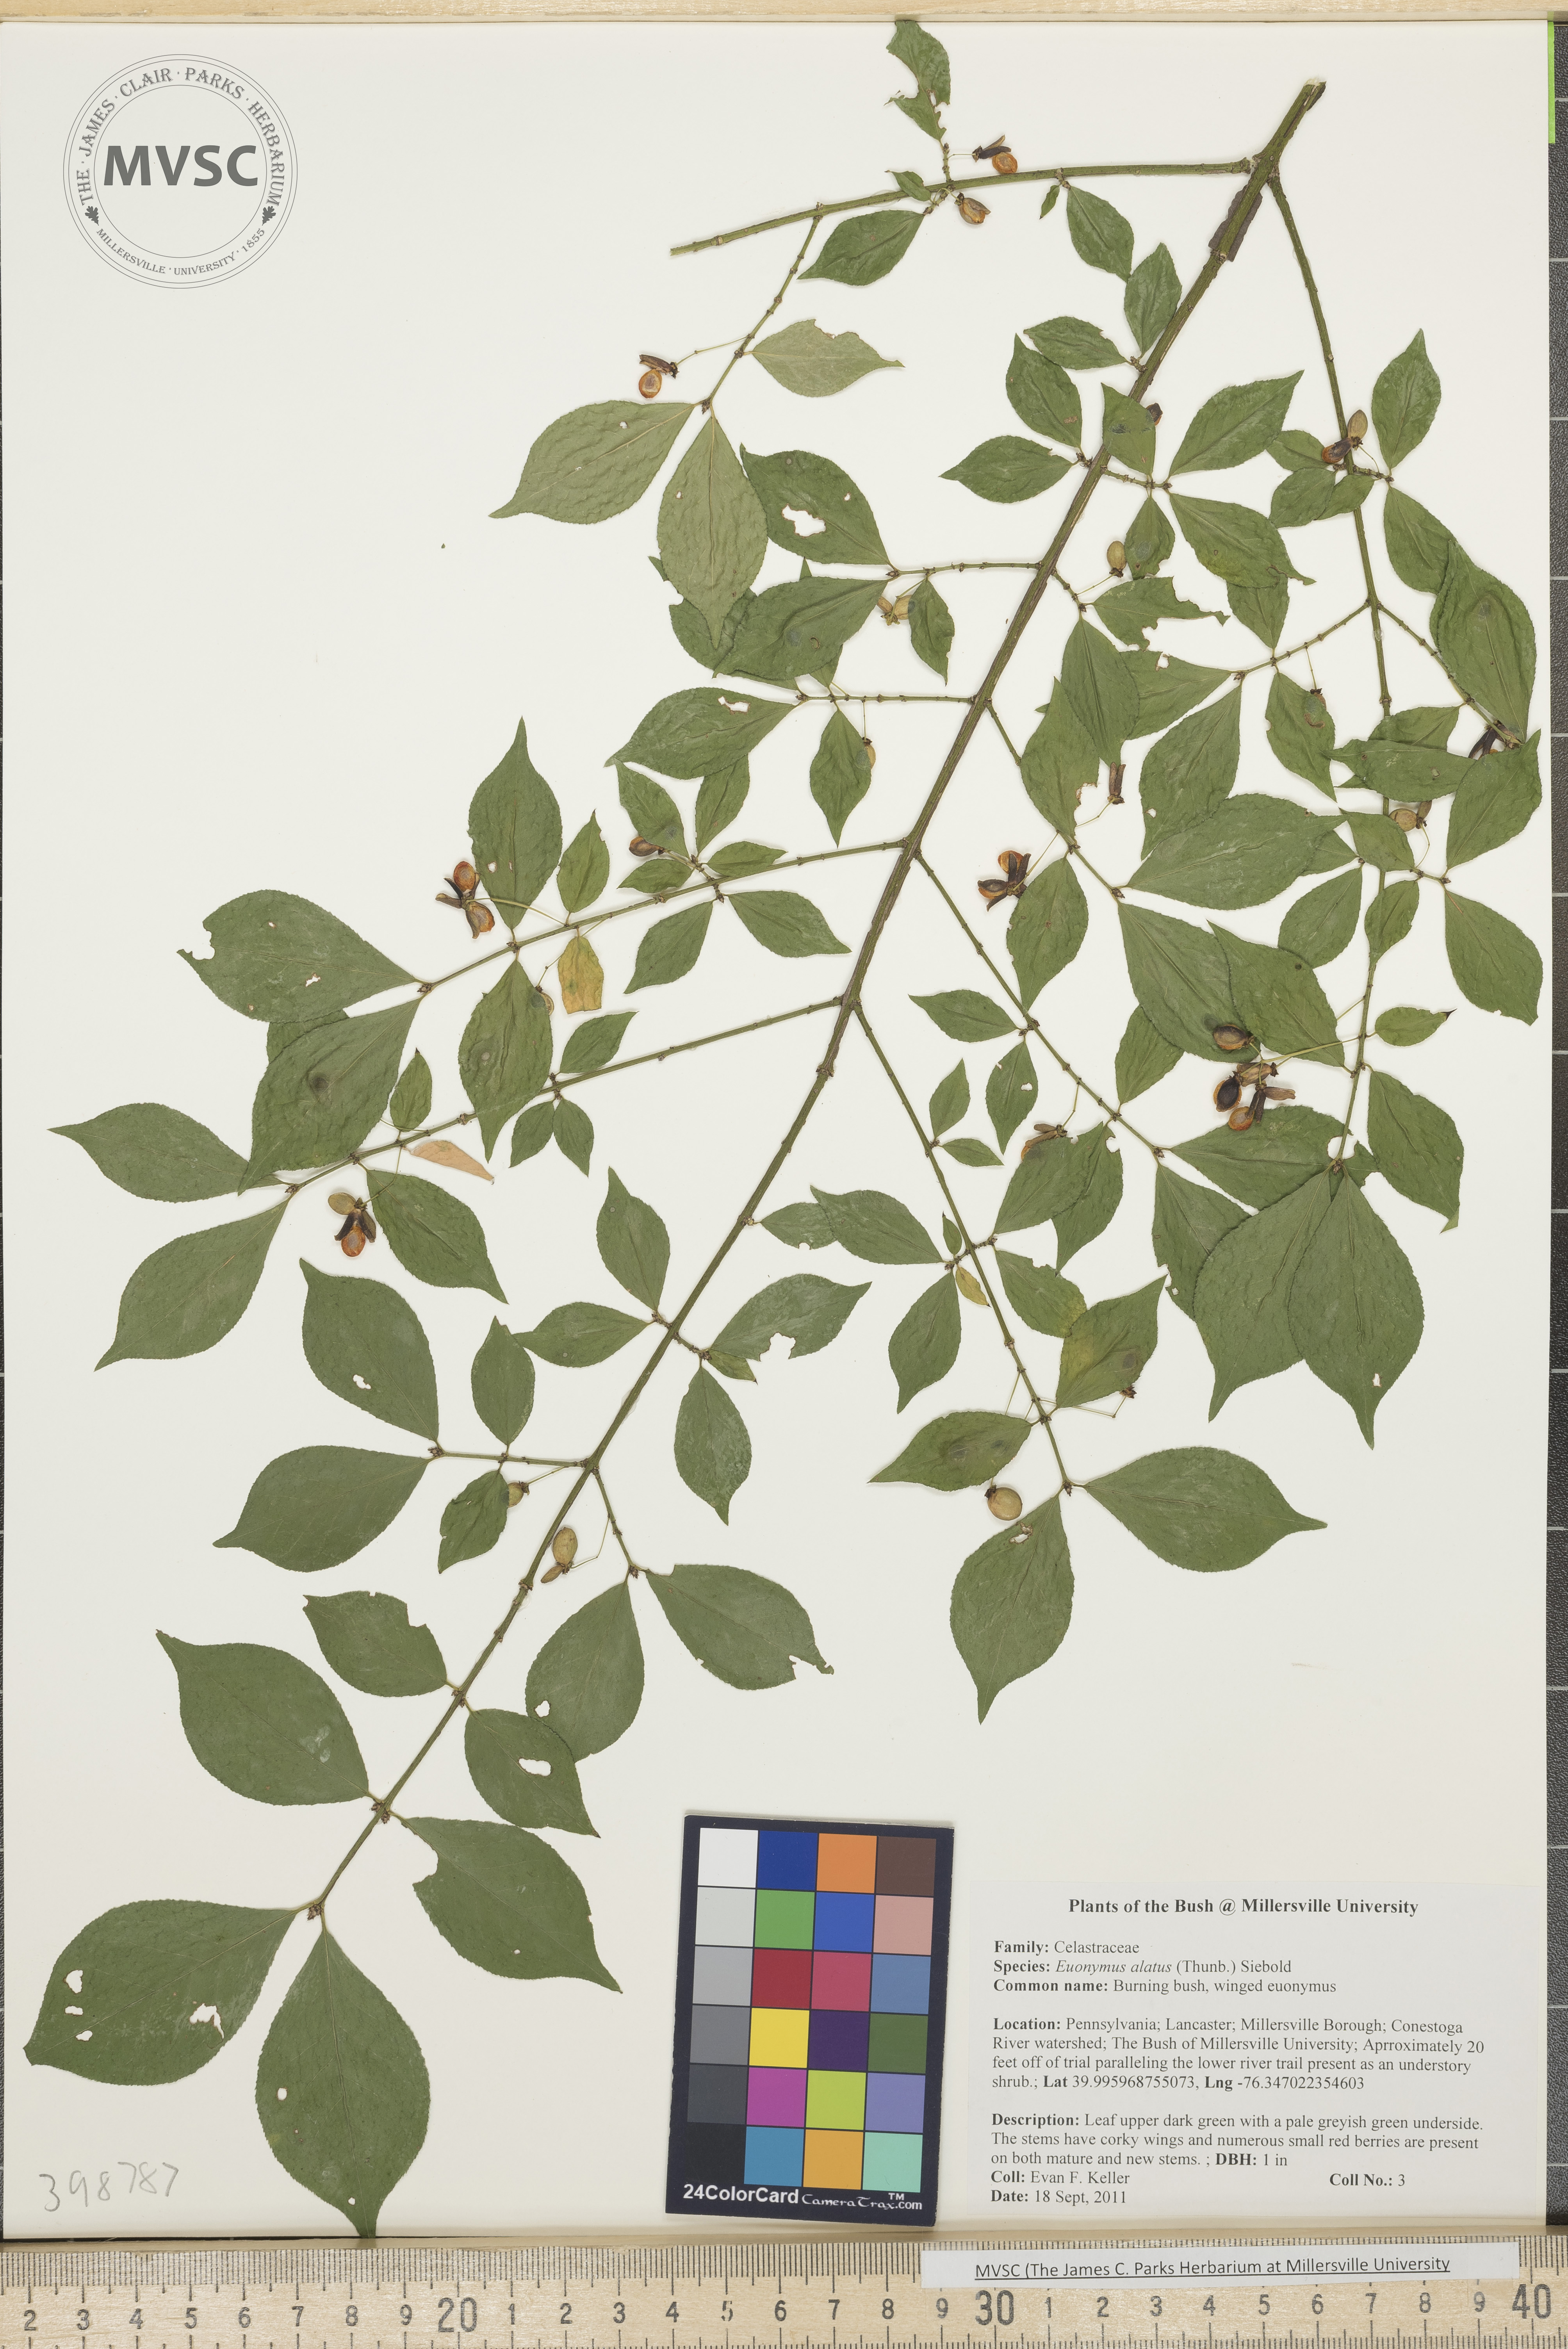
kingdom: Plantae
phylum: Tracheophyta
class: Magnoliopsida
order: Celastrales
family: Celastraceae
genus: Euonymus
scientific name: Euonymus alatus
